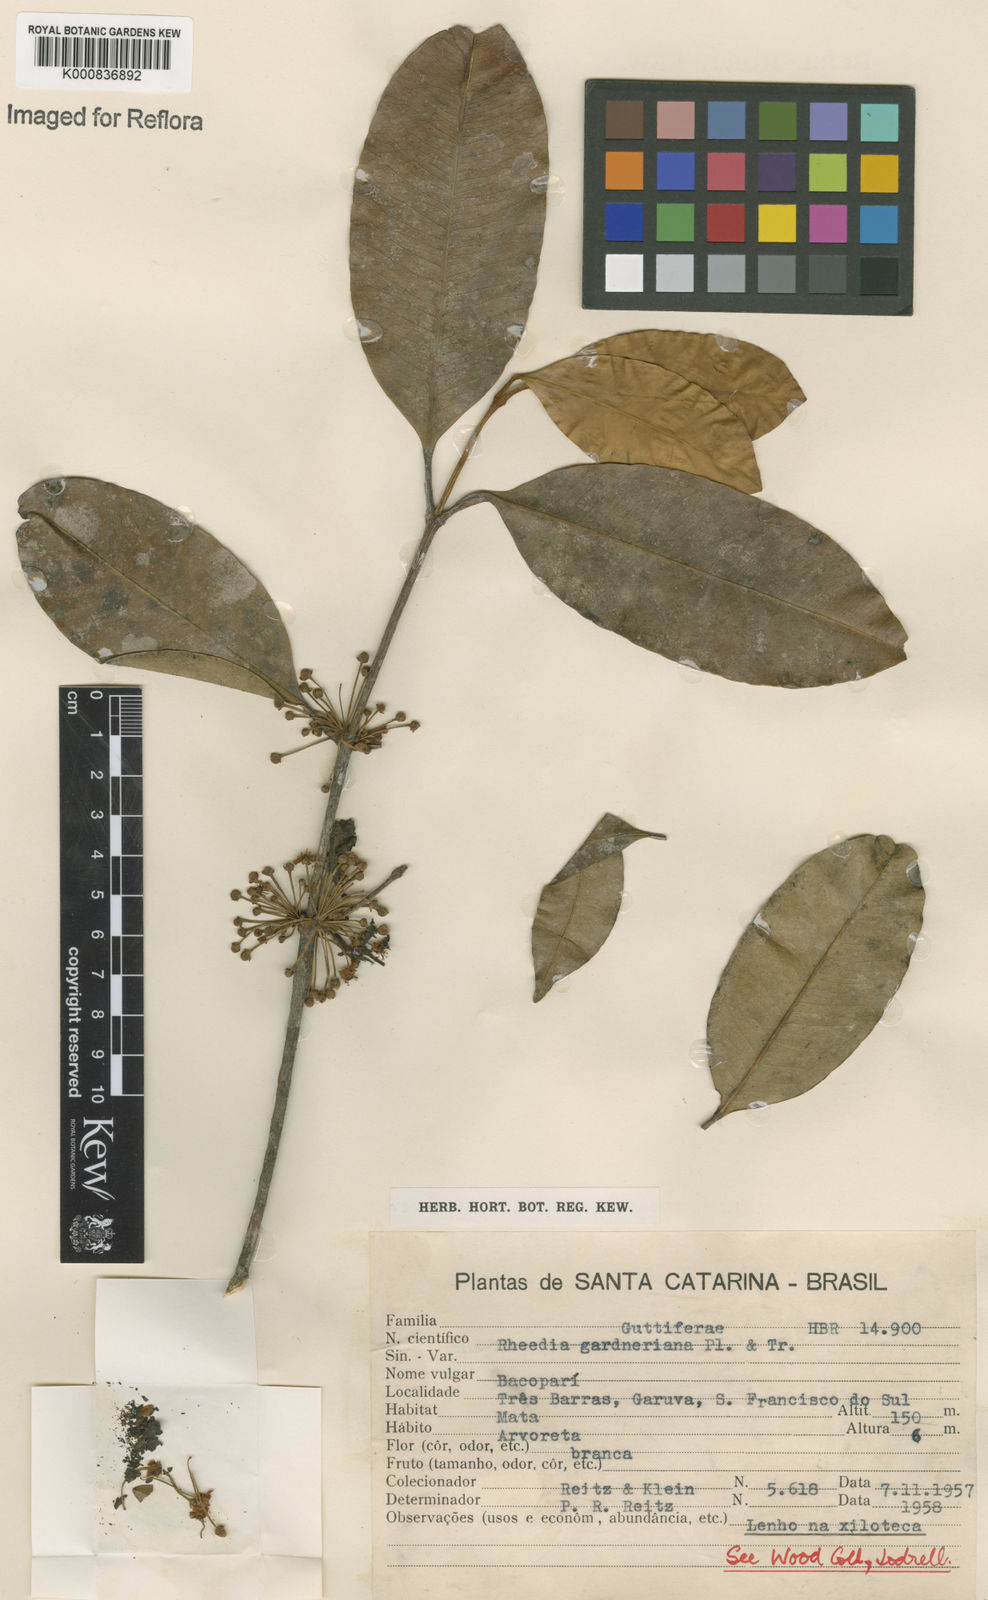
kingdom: Plantae
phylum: Tracheophyta
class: Magnoliopsida
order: Malpighiales
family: Clusiaceae
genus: Garcinia
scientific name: Garcinia gardneriana
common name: Achacha
